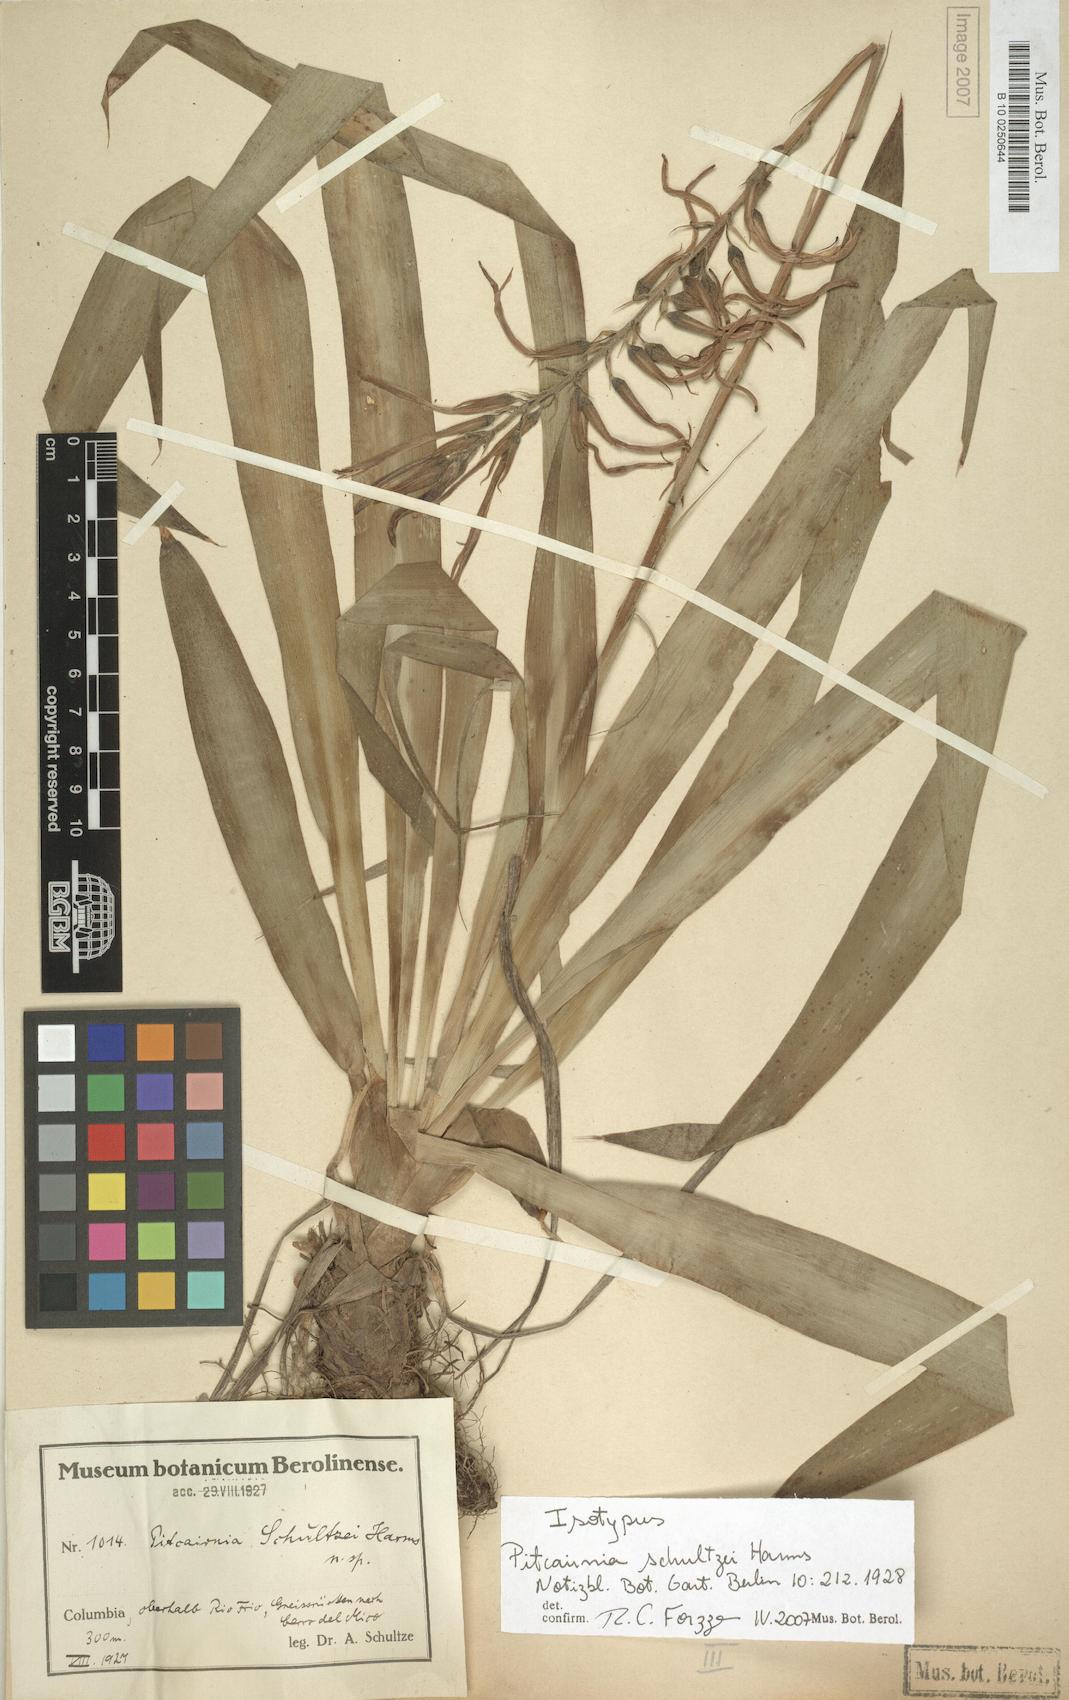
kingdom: Plantae
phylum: Tracheophyta
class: Liliopsida
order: Poales
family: Bromeliaceae
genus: Pitcairnia
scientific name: Pitcairnia schultzei
